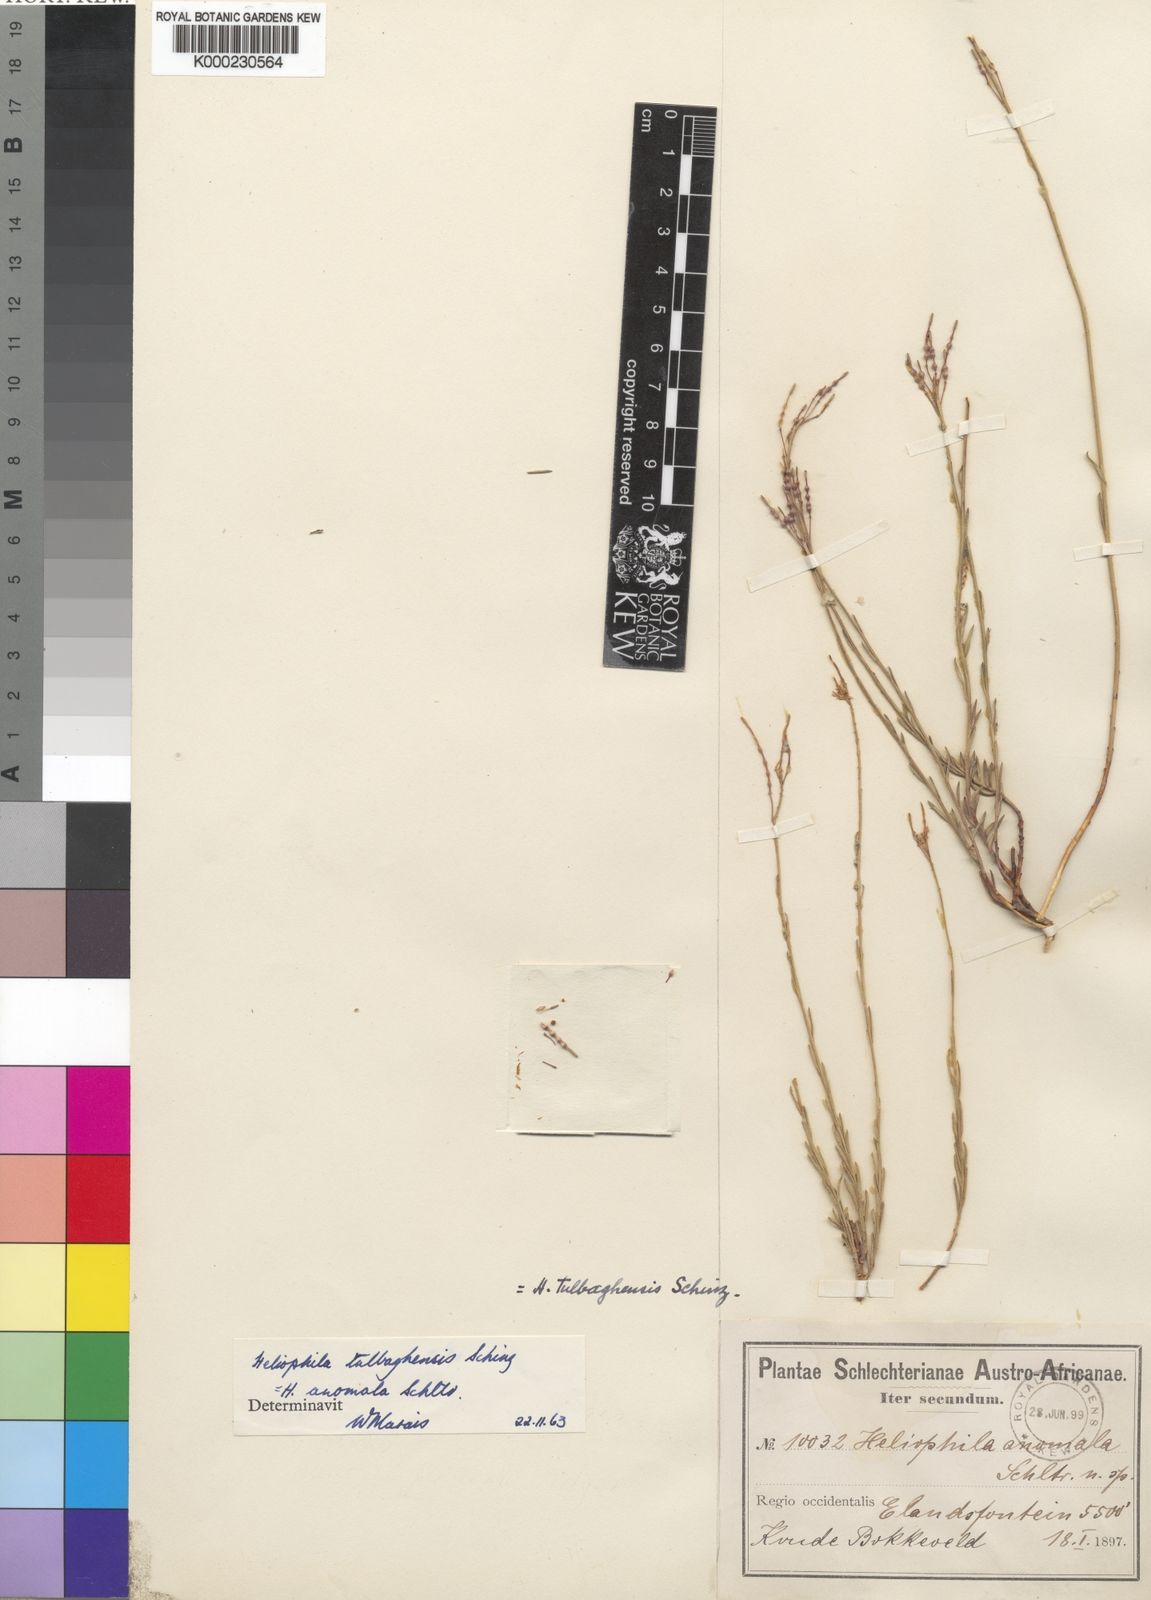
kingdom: Plantae
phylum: Tracheophyta
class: Magnoliopsida
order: Brassicales
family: Brassicaceae
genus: Heliophila
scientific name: Heliophila tulbaghensis
